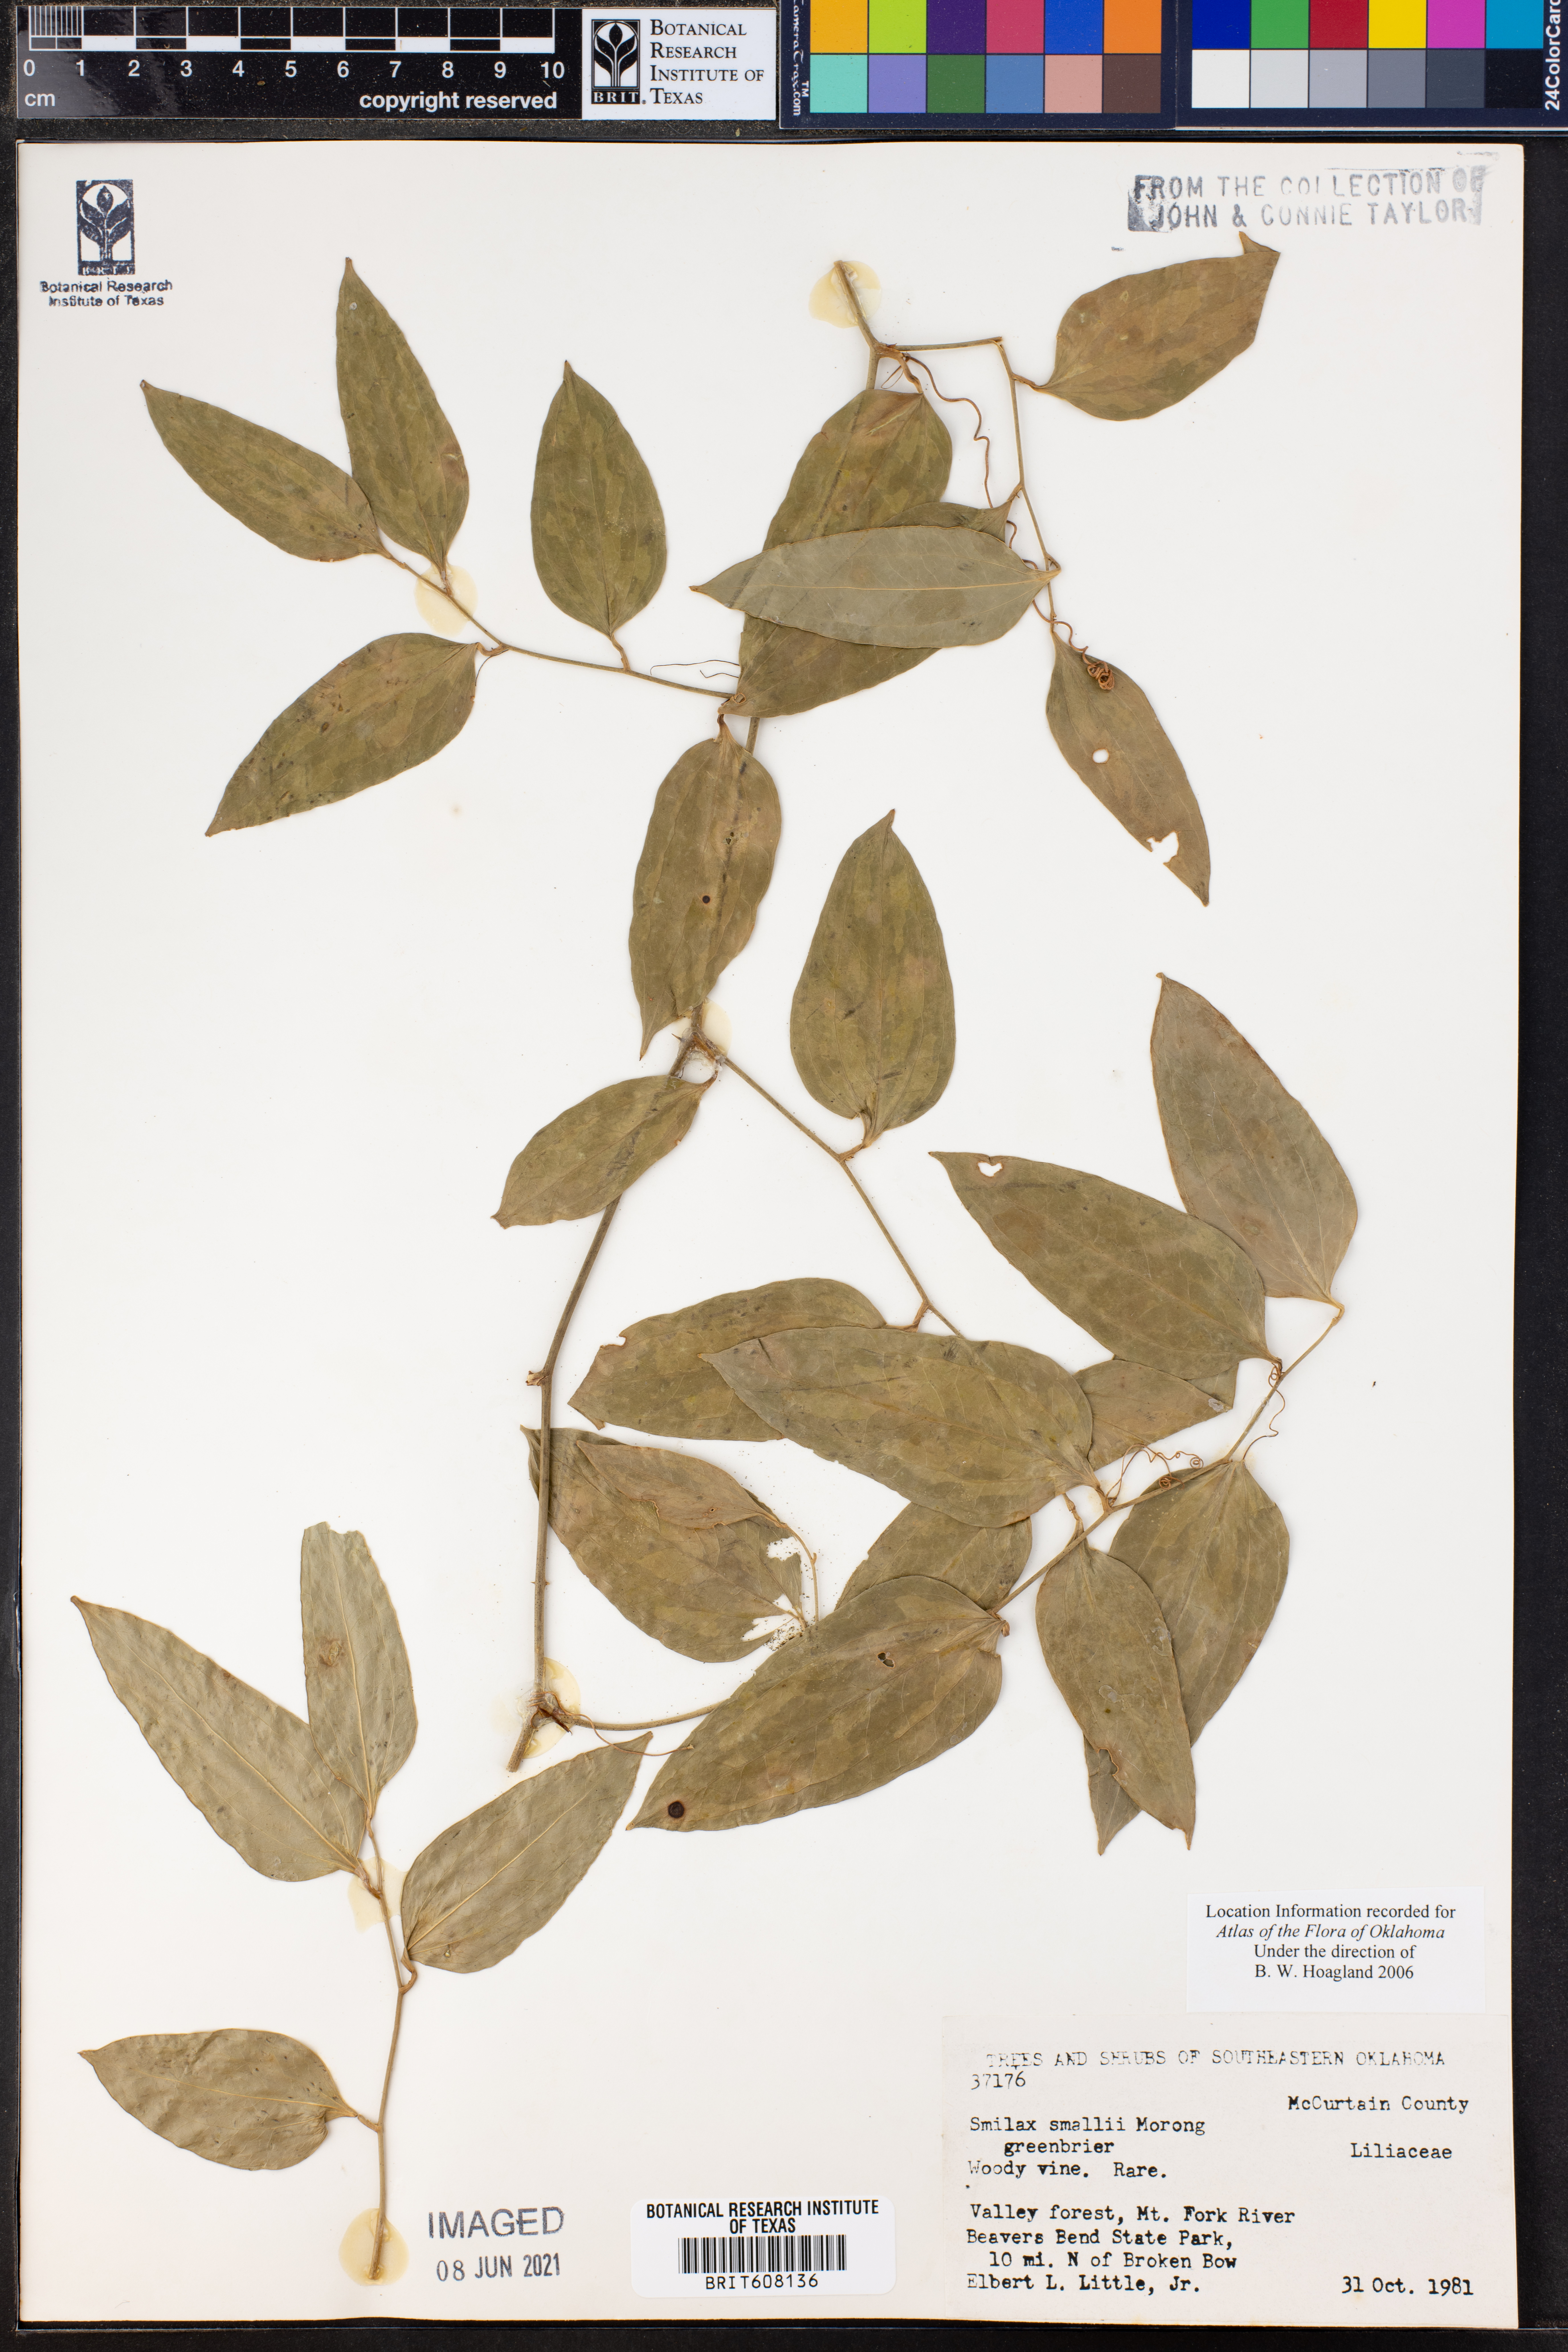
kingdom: Plantae
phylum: Tracheophyta
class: Liliopsida
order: Liliales
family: Smilacaceae
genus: Smilax
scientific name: Smilax maritima
